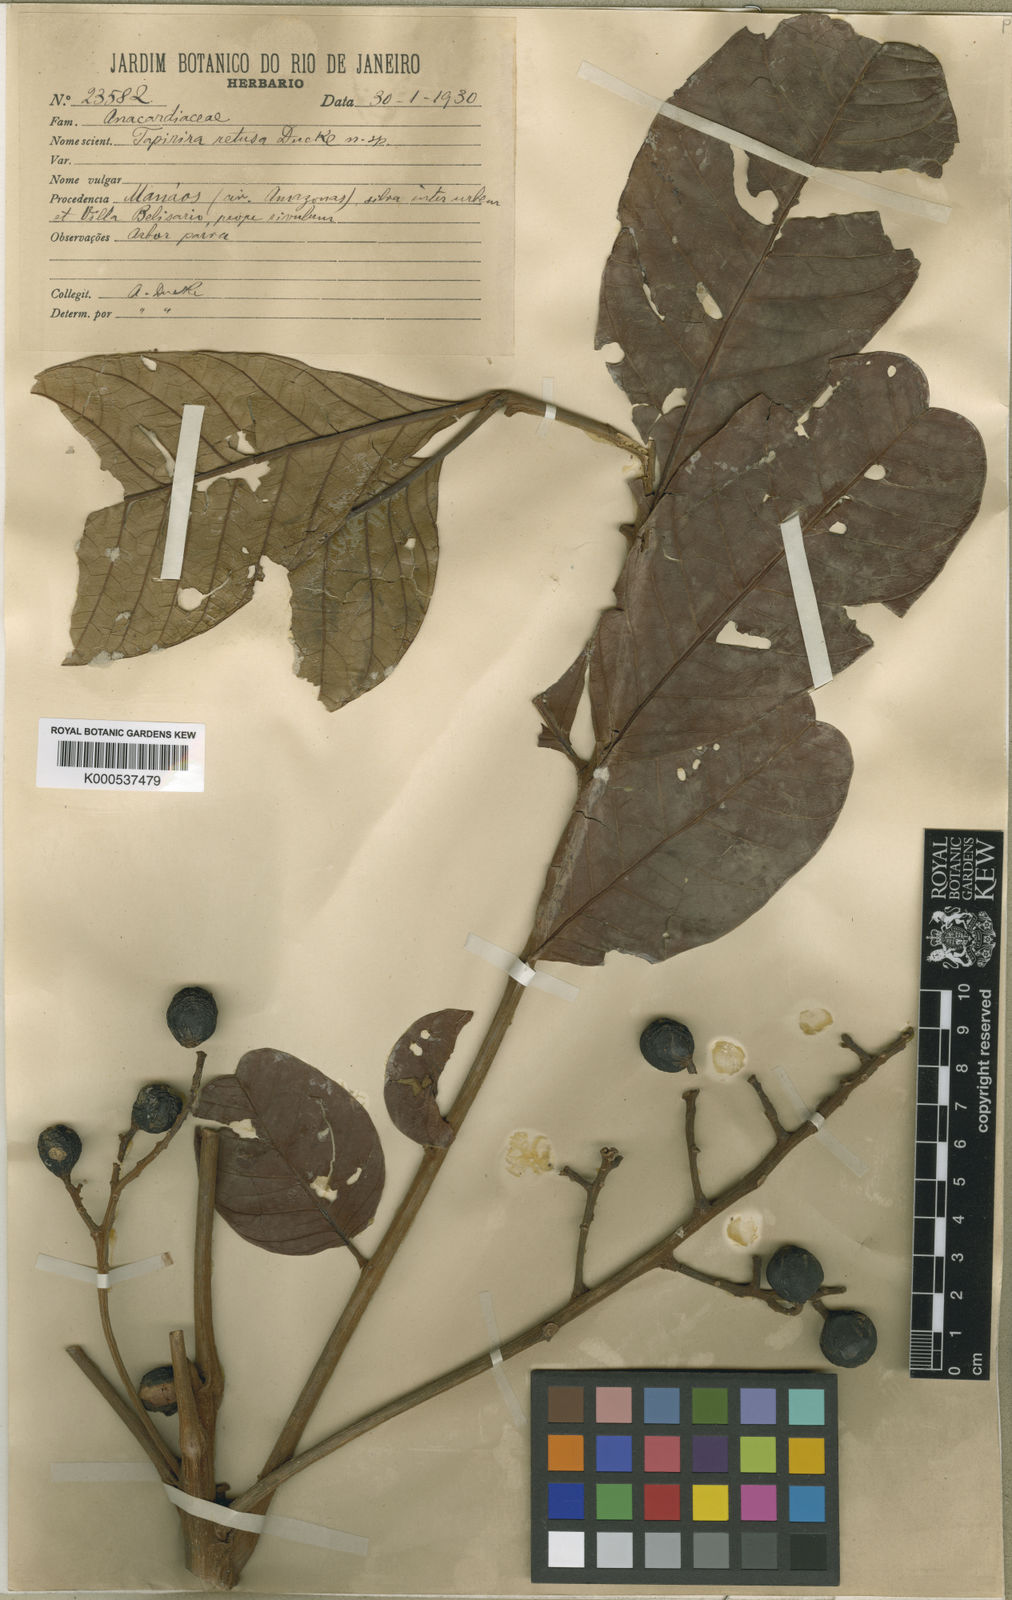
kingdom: Plantae
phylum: Tracheophyta
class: Magnoliopsida
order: Sapindales
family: Anacardiaceae
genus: Tapirira
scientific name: Tapirira retusa
